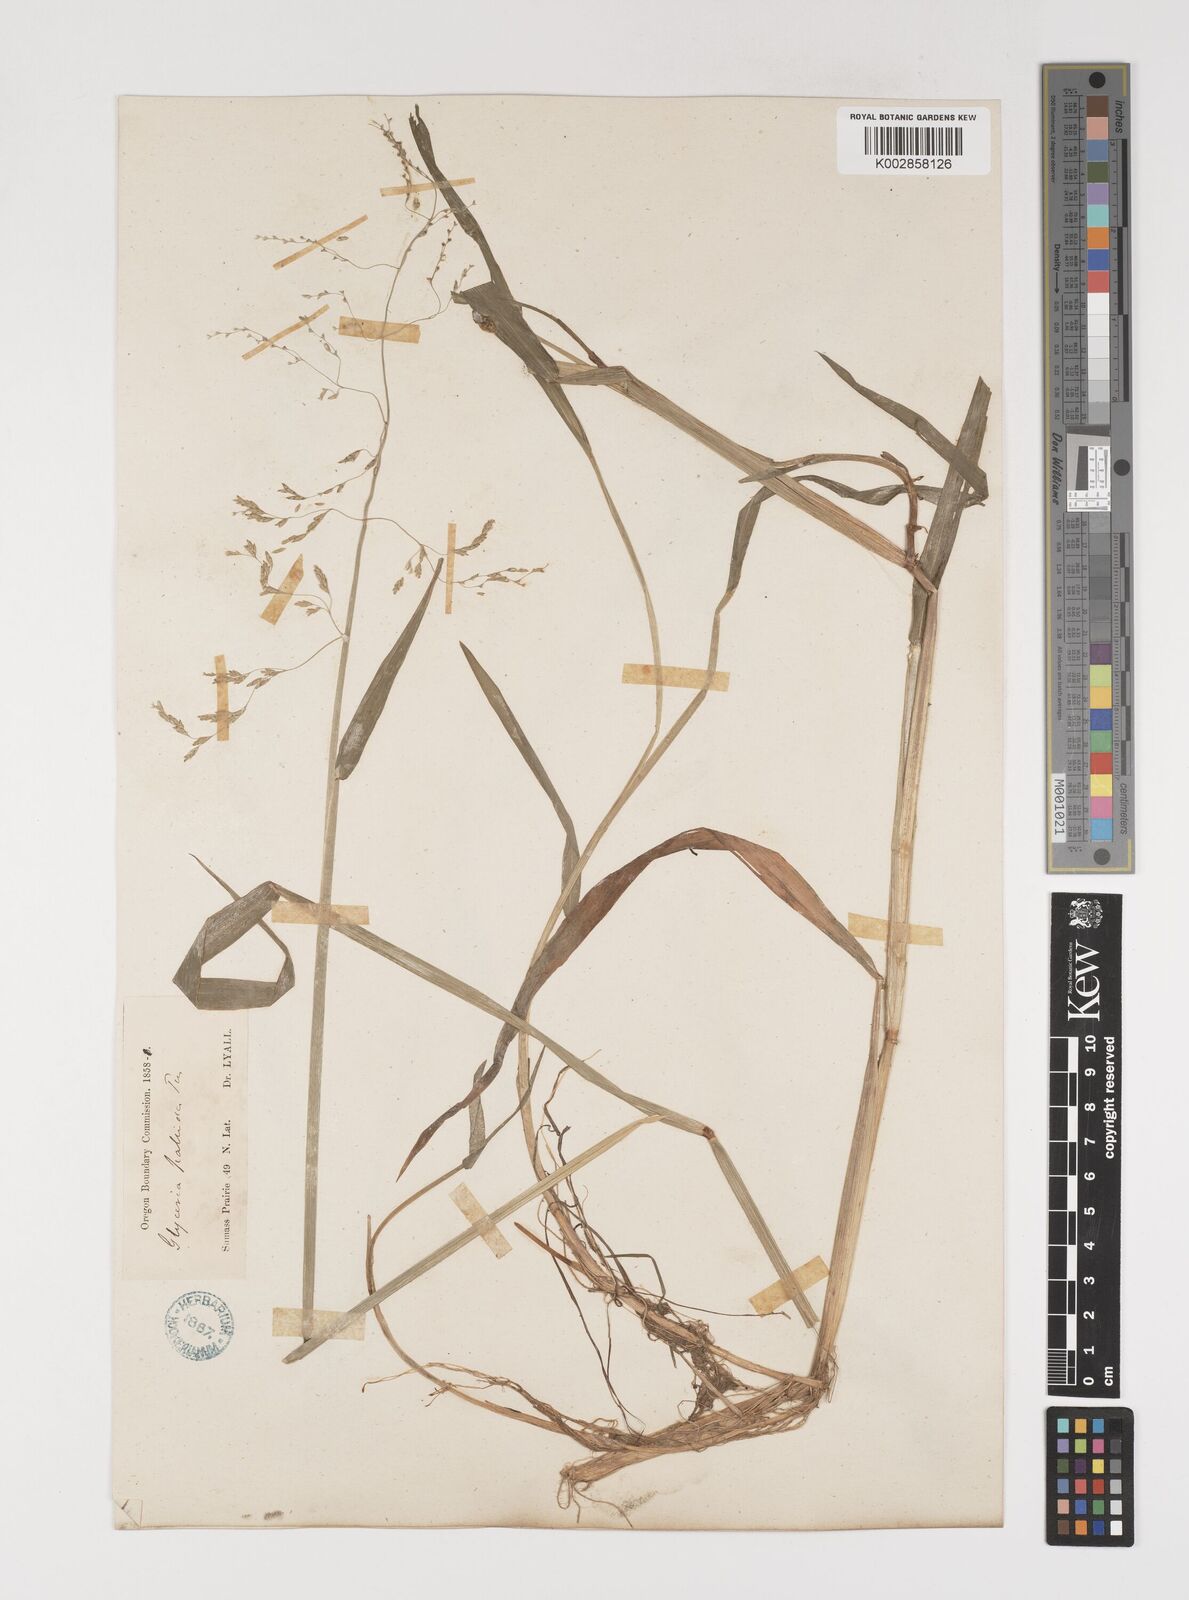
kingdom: Plantae
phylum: Tracheophyta
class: Liliopsida
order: Poales
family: Poaceae
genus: Torreyochloa
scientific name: Torreyochloa pallida
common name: Pale false mannagrass
